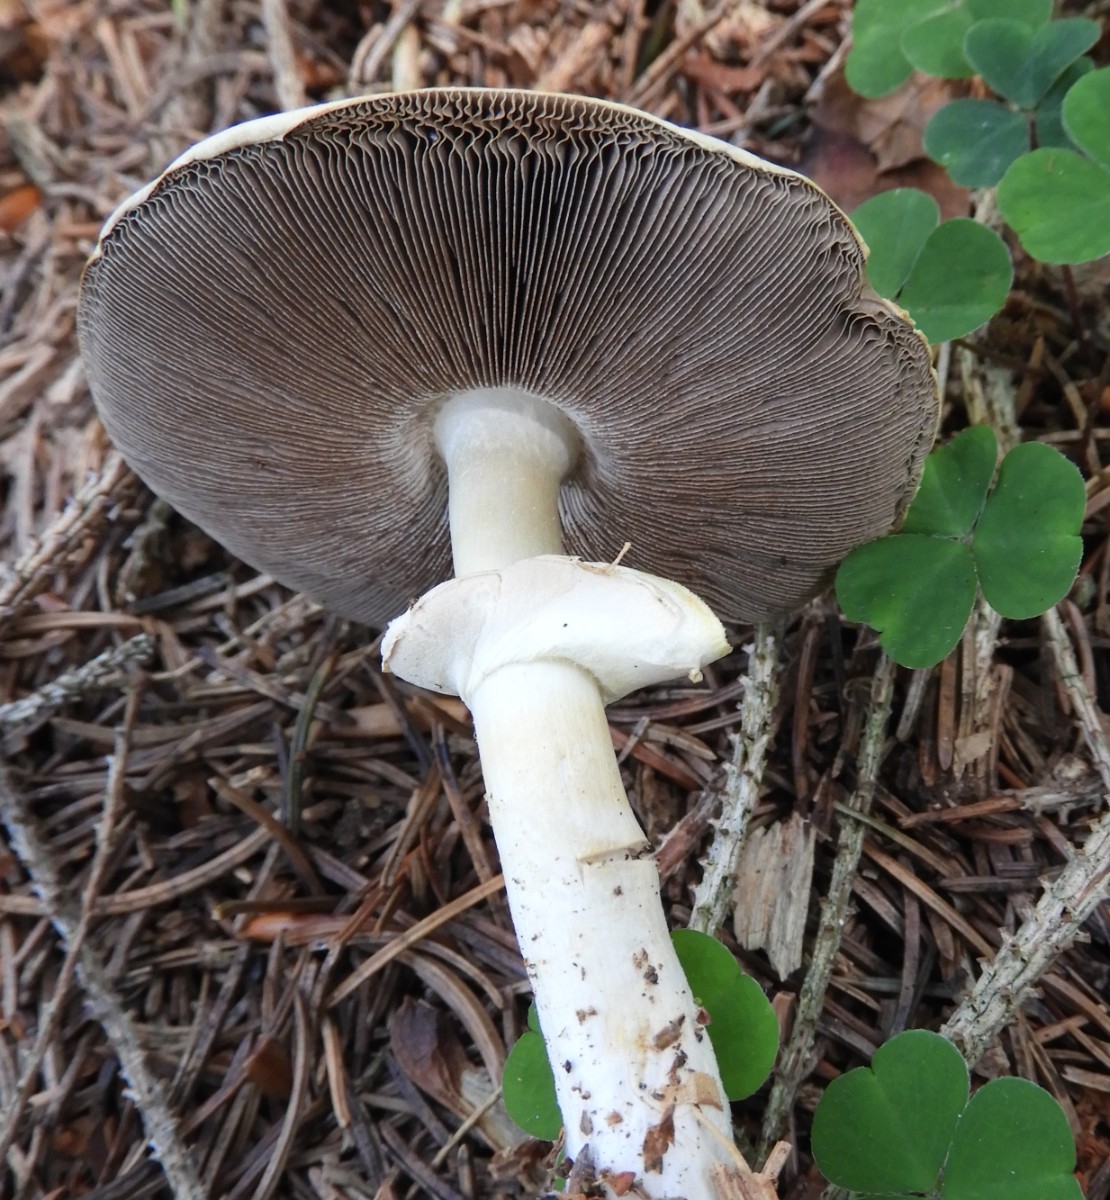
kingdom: Fungi
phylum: Basidiomycota
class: Agaricomycetes
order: Agaricales
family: Agaricaceae
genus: Agaricus
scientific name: Agaricus
